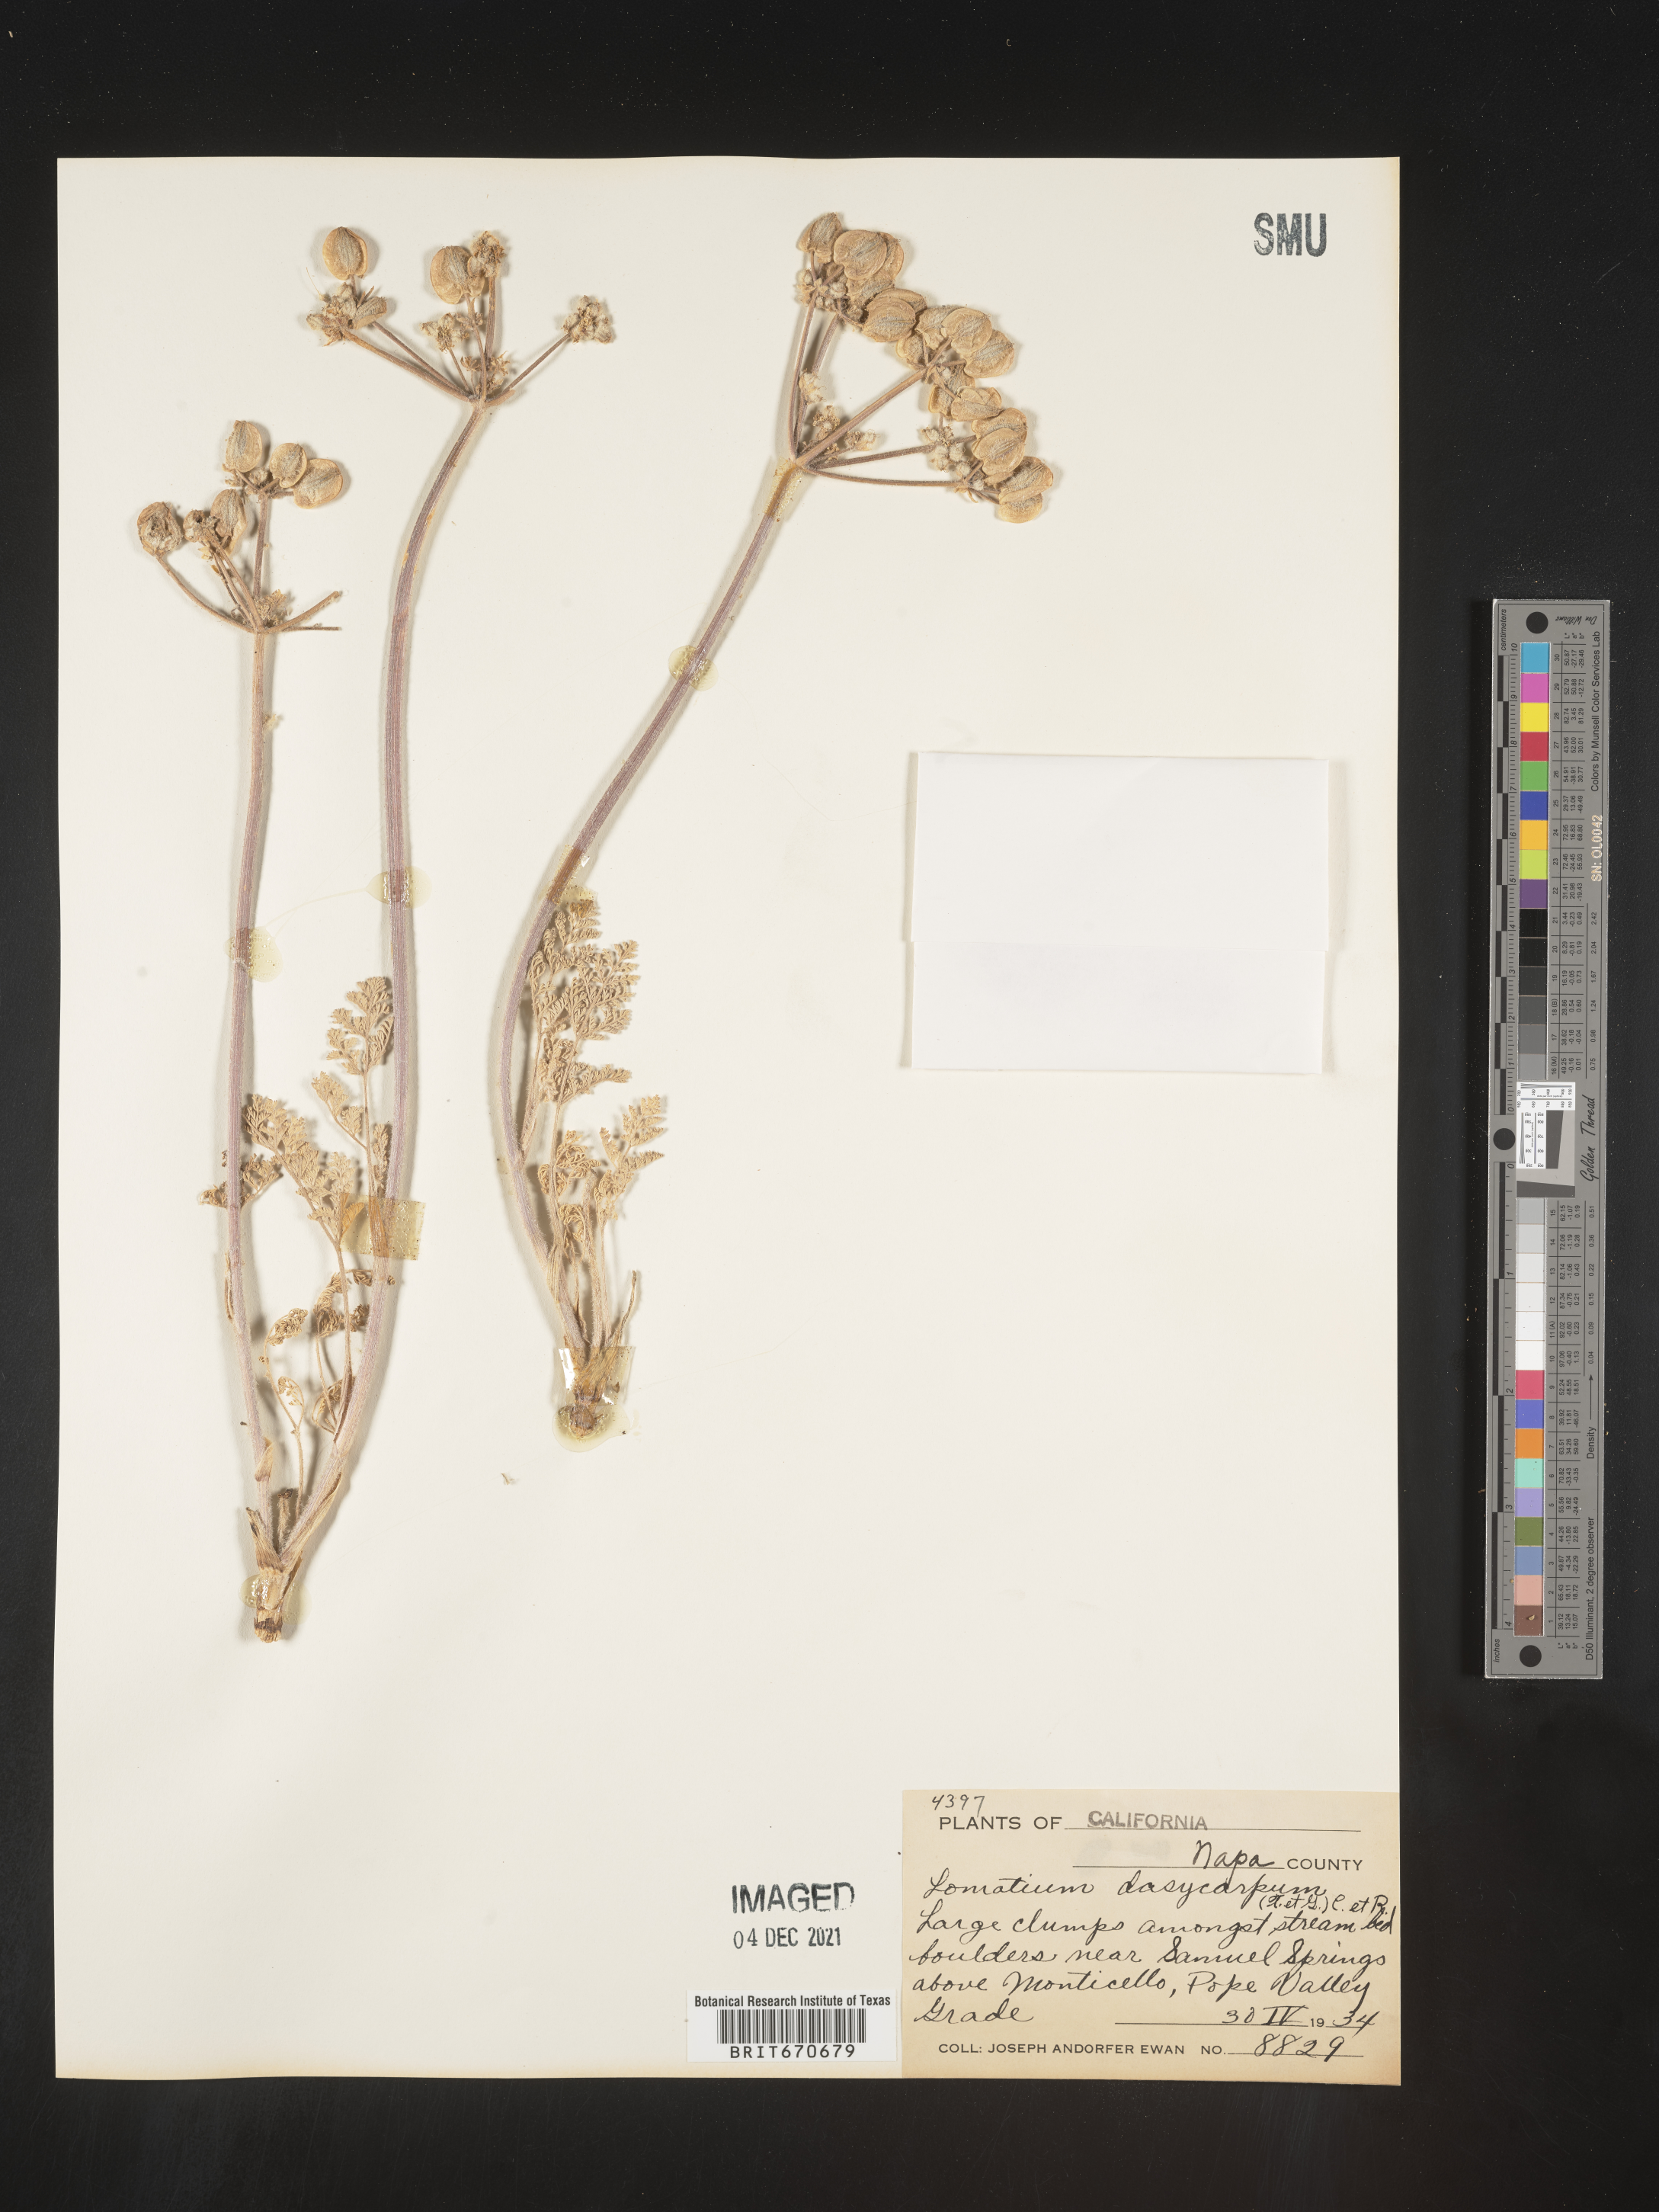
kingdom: Plantae
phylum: Tracheophyta
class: Magnoliopsida
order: Apiales
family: Apiaceae
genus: Lomatium
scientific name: Lomatium dasycarpum
